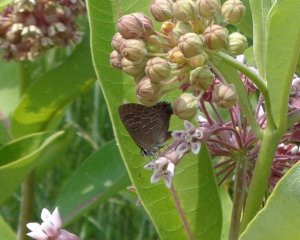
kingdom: Animalia
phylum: Arthropoda
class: Insecta
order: Lepidoptera
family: Lycaenidae
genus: Satyrium
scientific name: Satyrium liparops
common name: Striped Hairstreak
